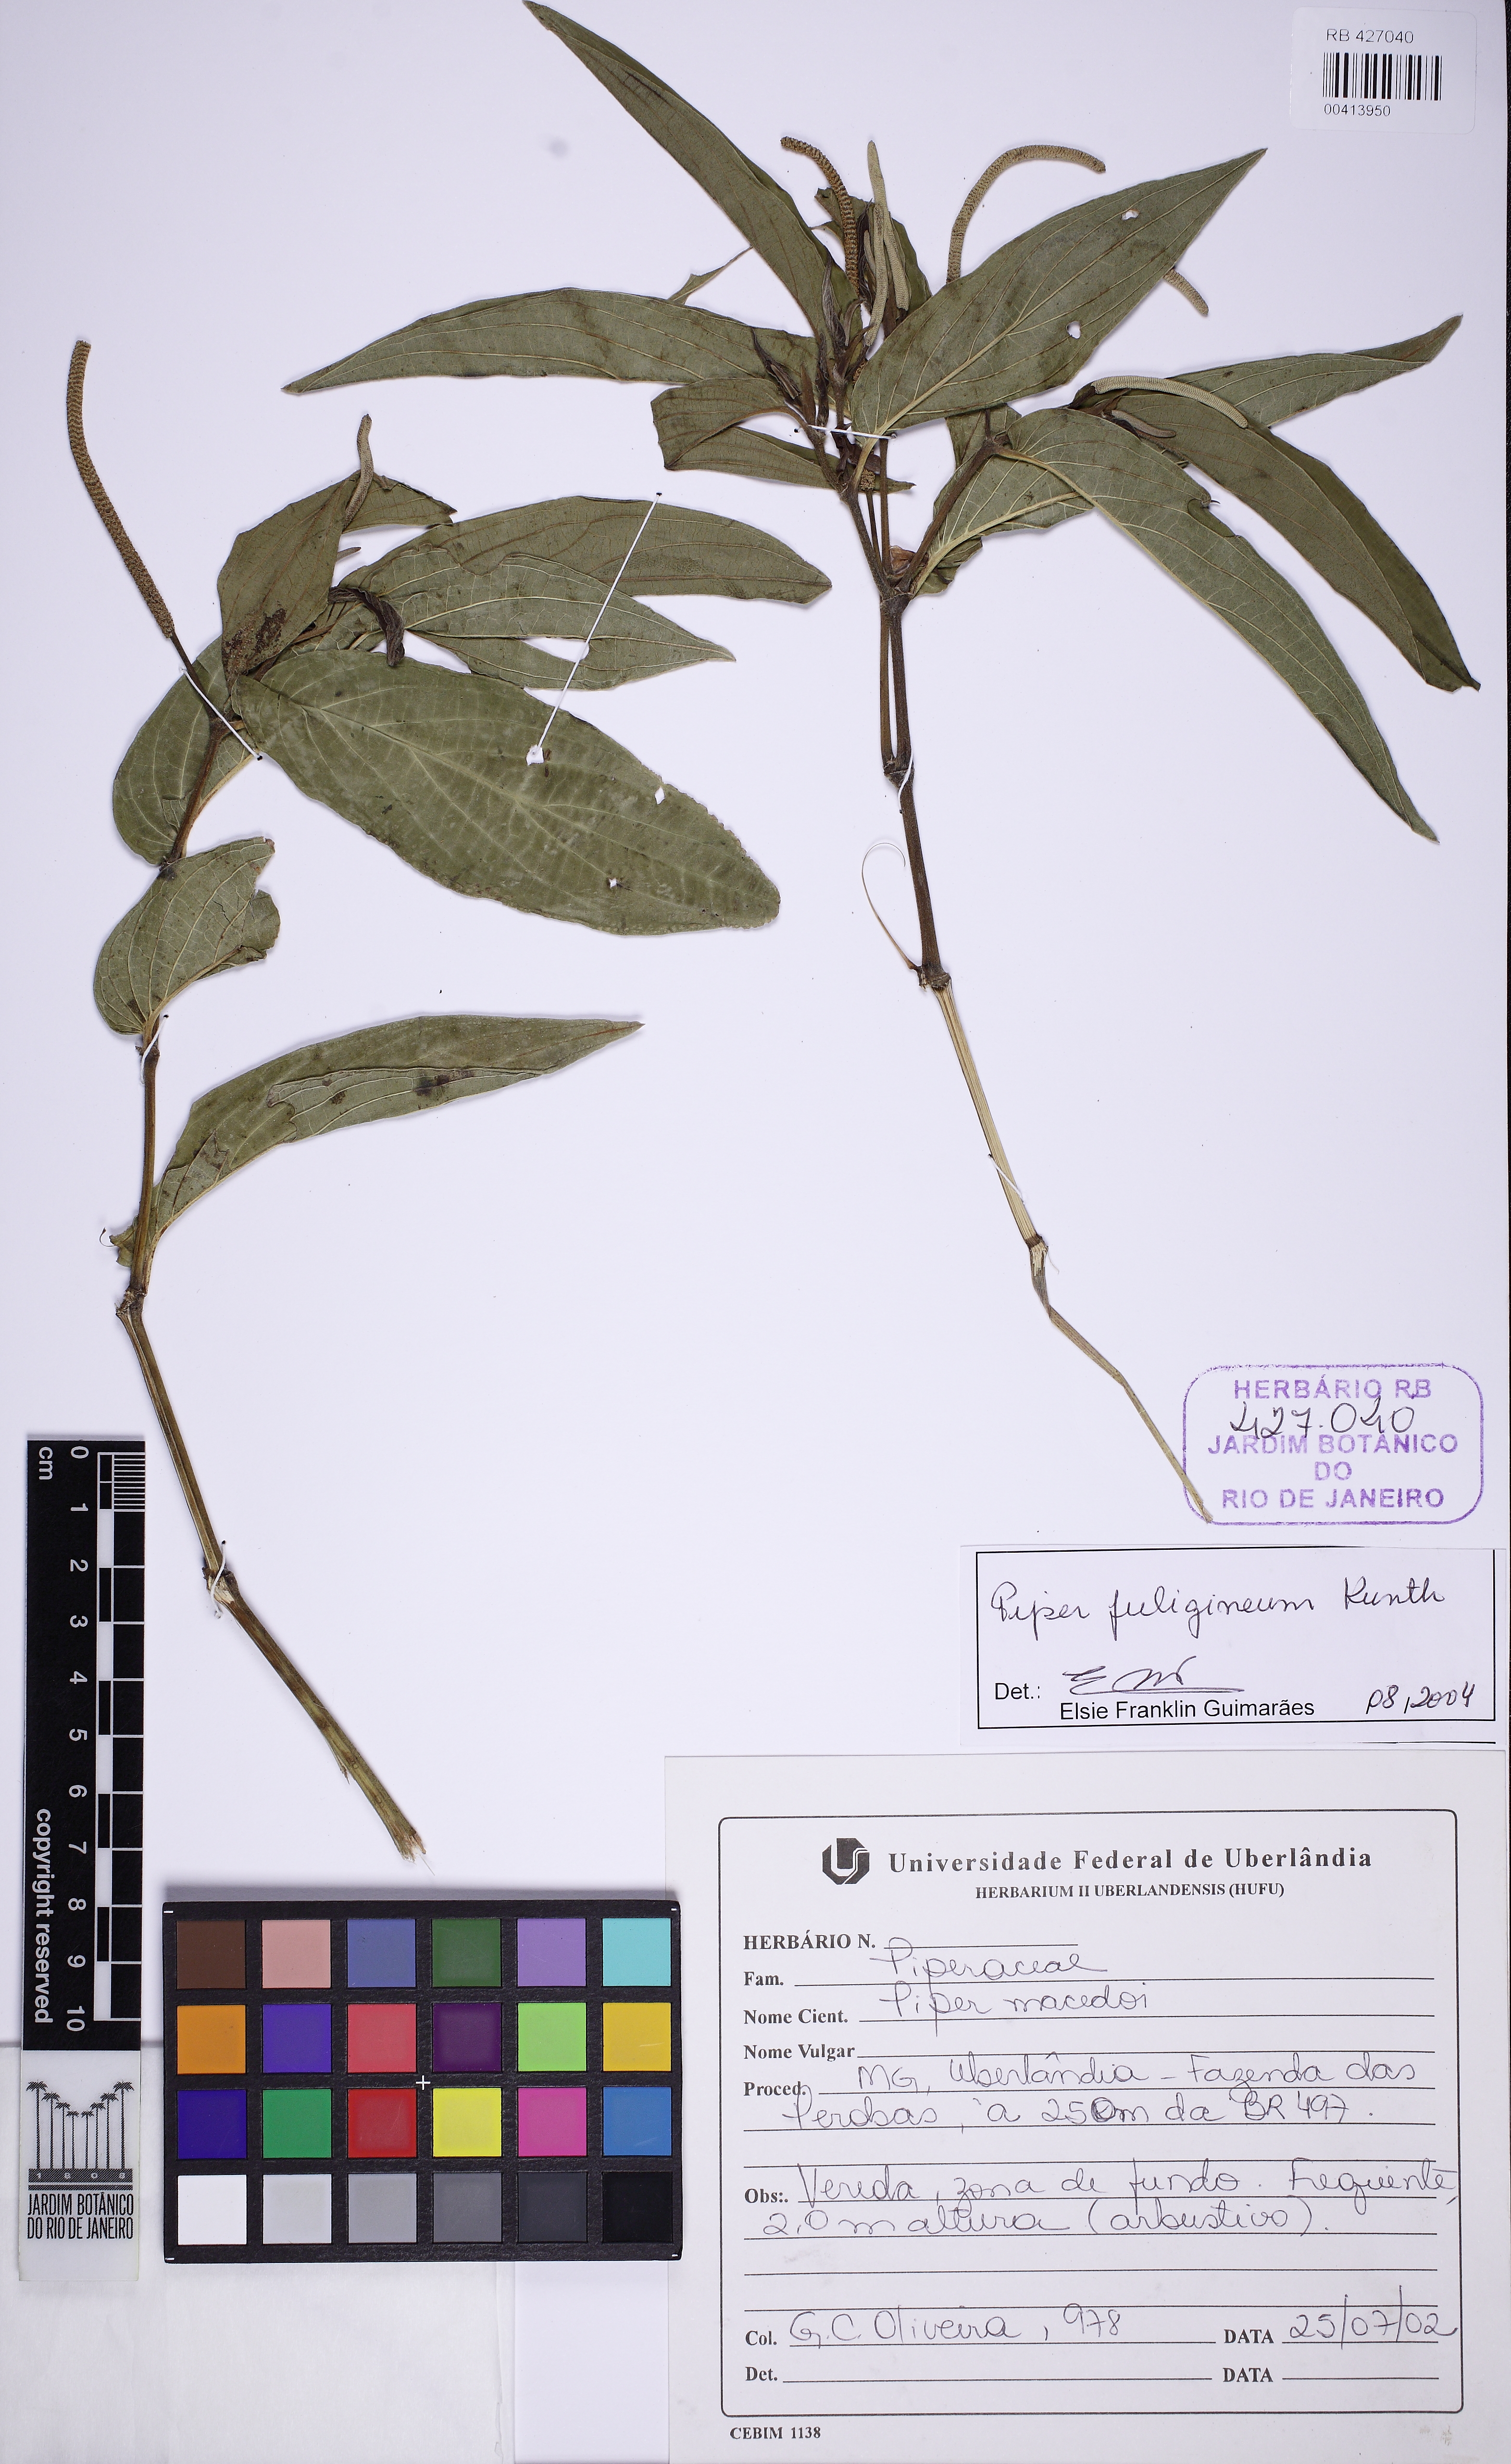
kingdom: Plantae
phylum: Tracheophyta
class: Magnoliopsida
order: Piperales
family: Piperaceae
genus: Piper
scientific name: Piper fuligineum
